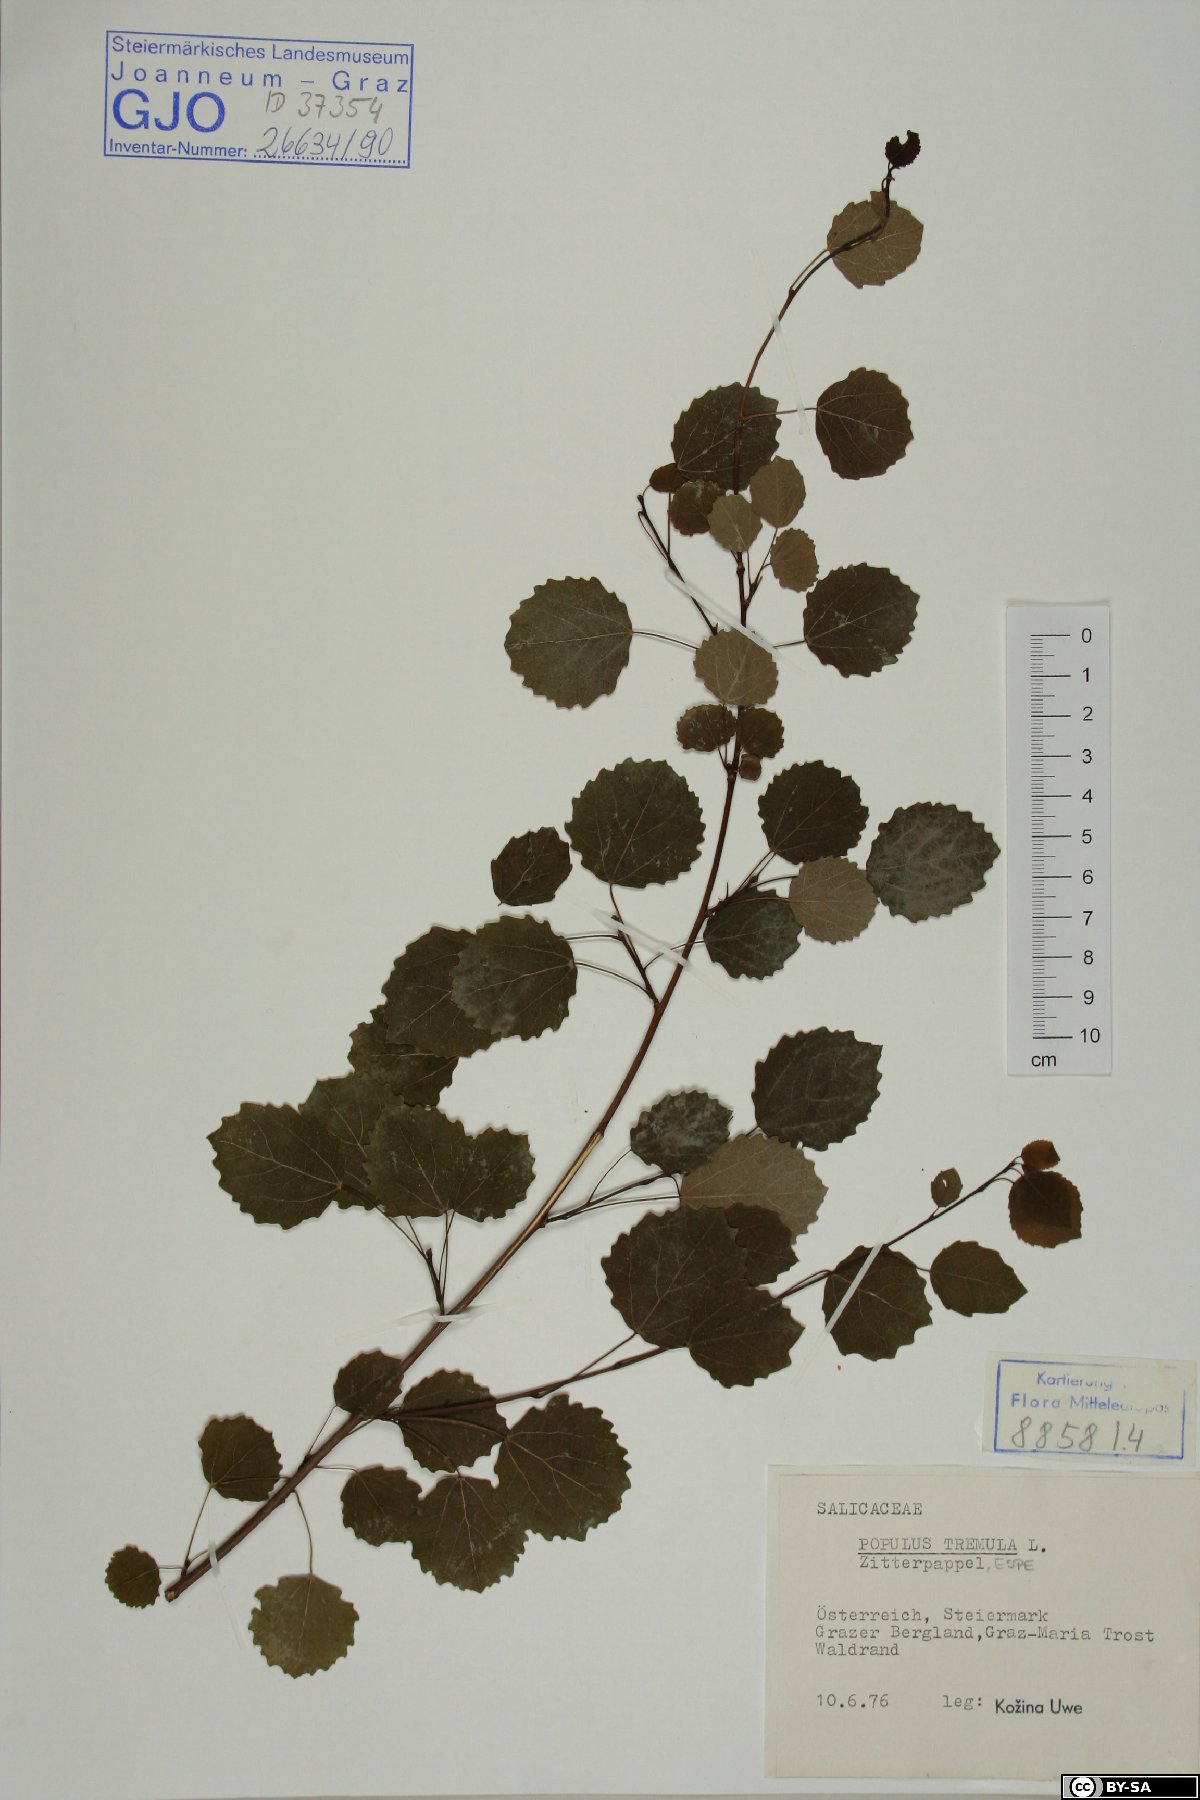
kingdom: Plantae
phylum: Tracheophyta
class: Magnoliopsida
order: Malpighiales
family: Salicaceae
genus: Populus
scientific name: Populus tremula
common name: European aspen
